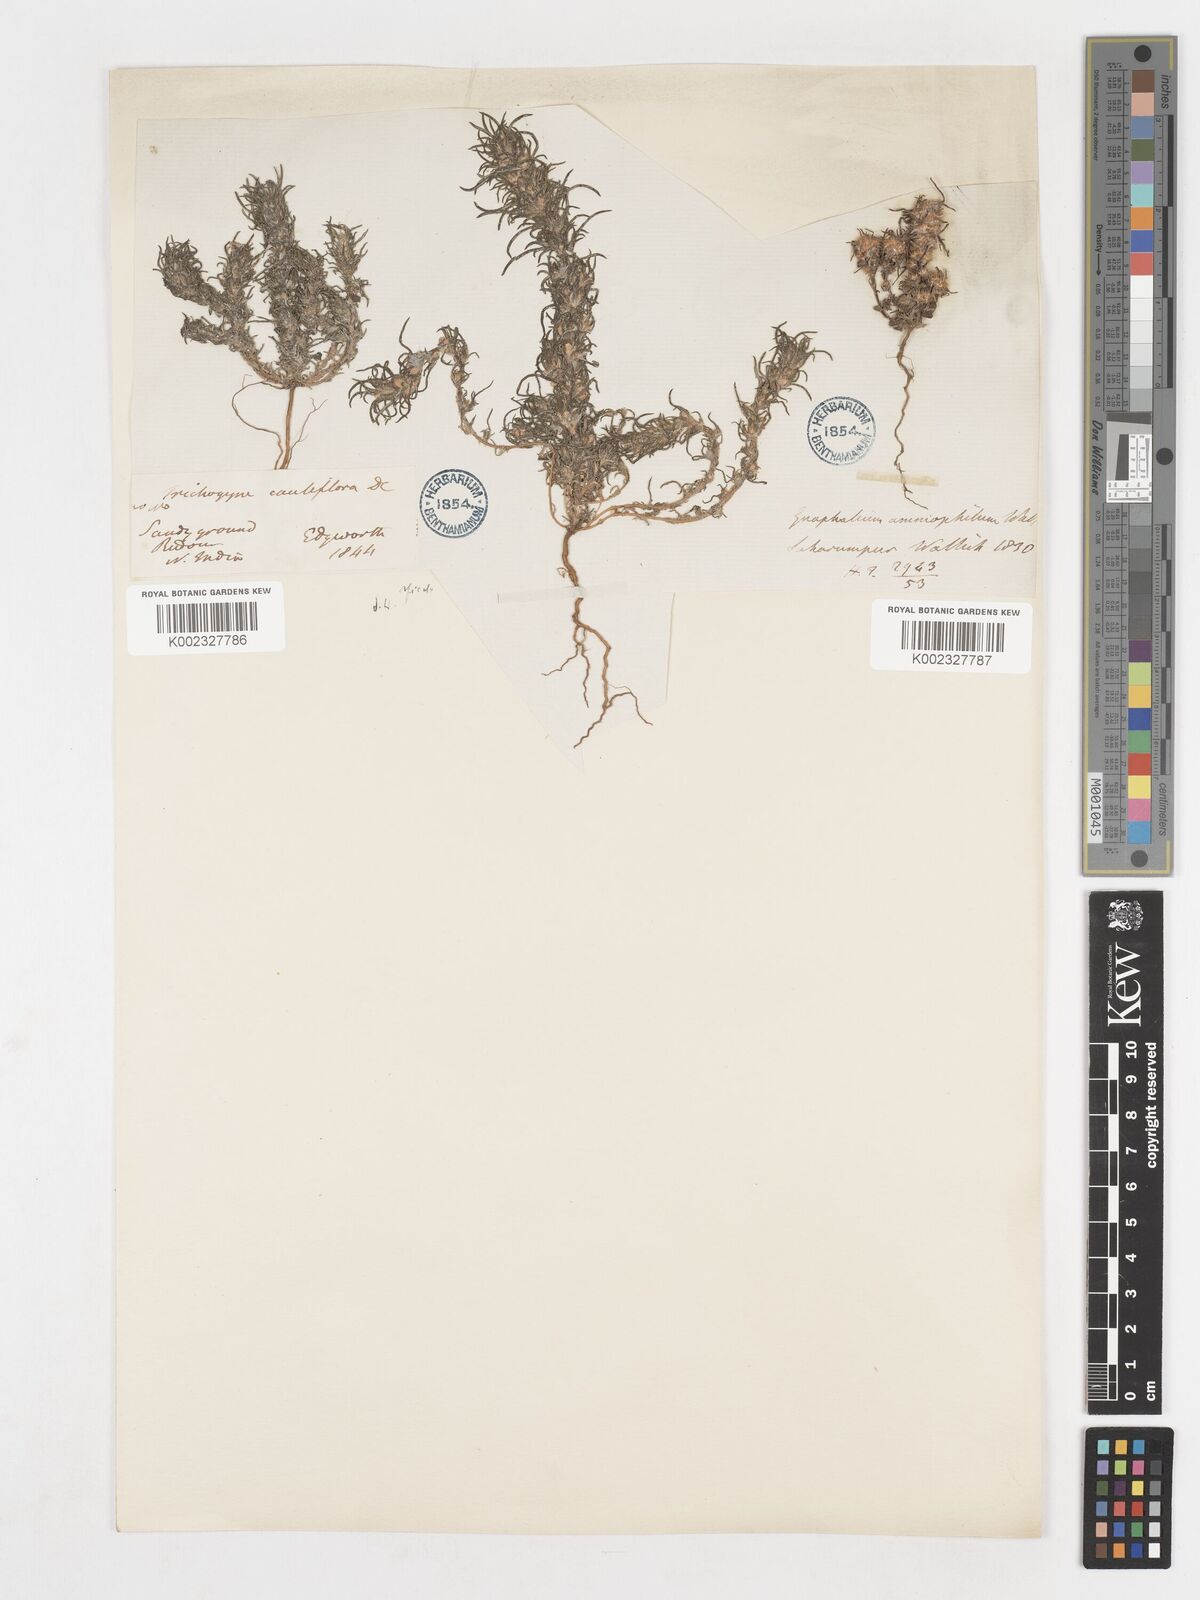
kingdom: Plantae
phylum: Tracheophyta
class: Magnoliopsida
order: Asterales
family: Asteraceae
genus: Ifloga
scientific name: Ifloga spicata
